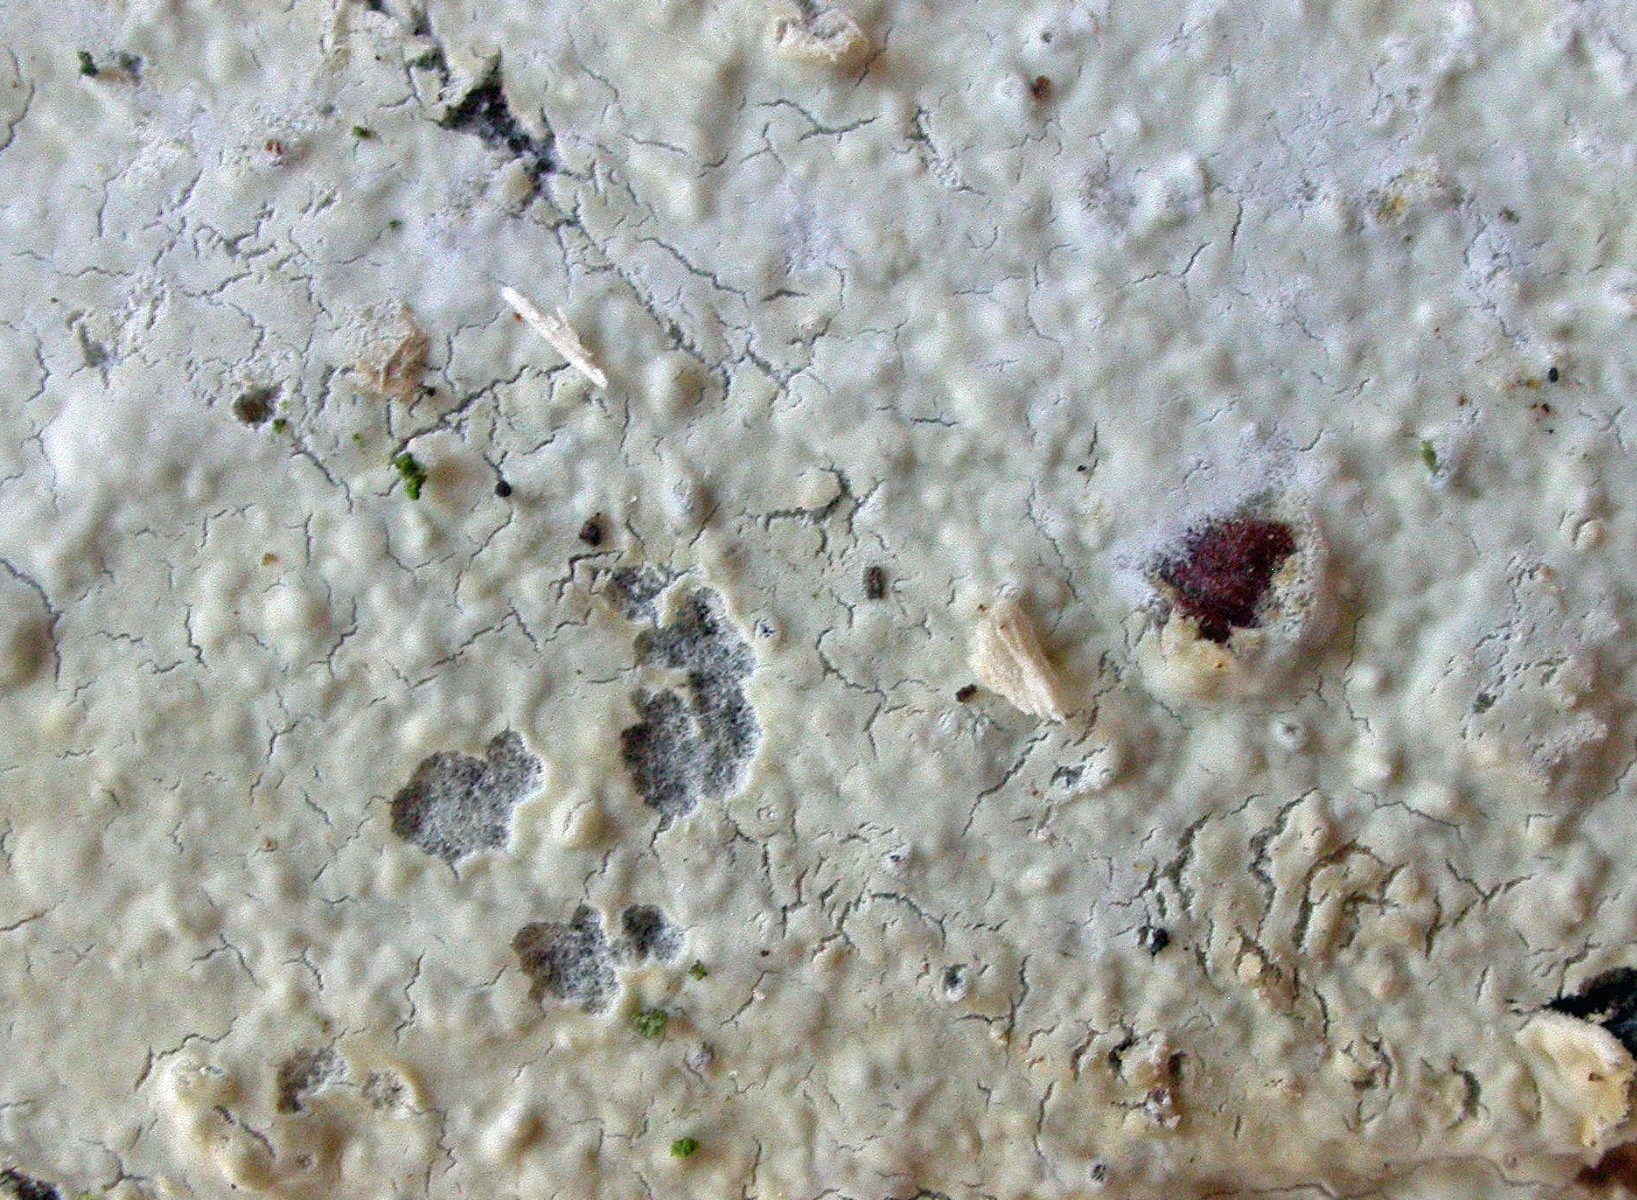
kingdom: Fungi
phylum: Basidiomycota
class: Agaricomycetes
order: Polyporales
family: Phanerochaetaceae
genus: Phanerochaete
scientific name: Phanerochaete sordida
